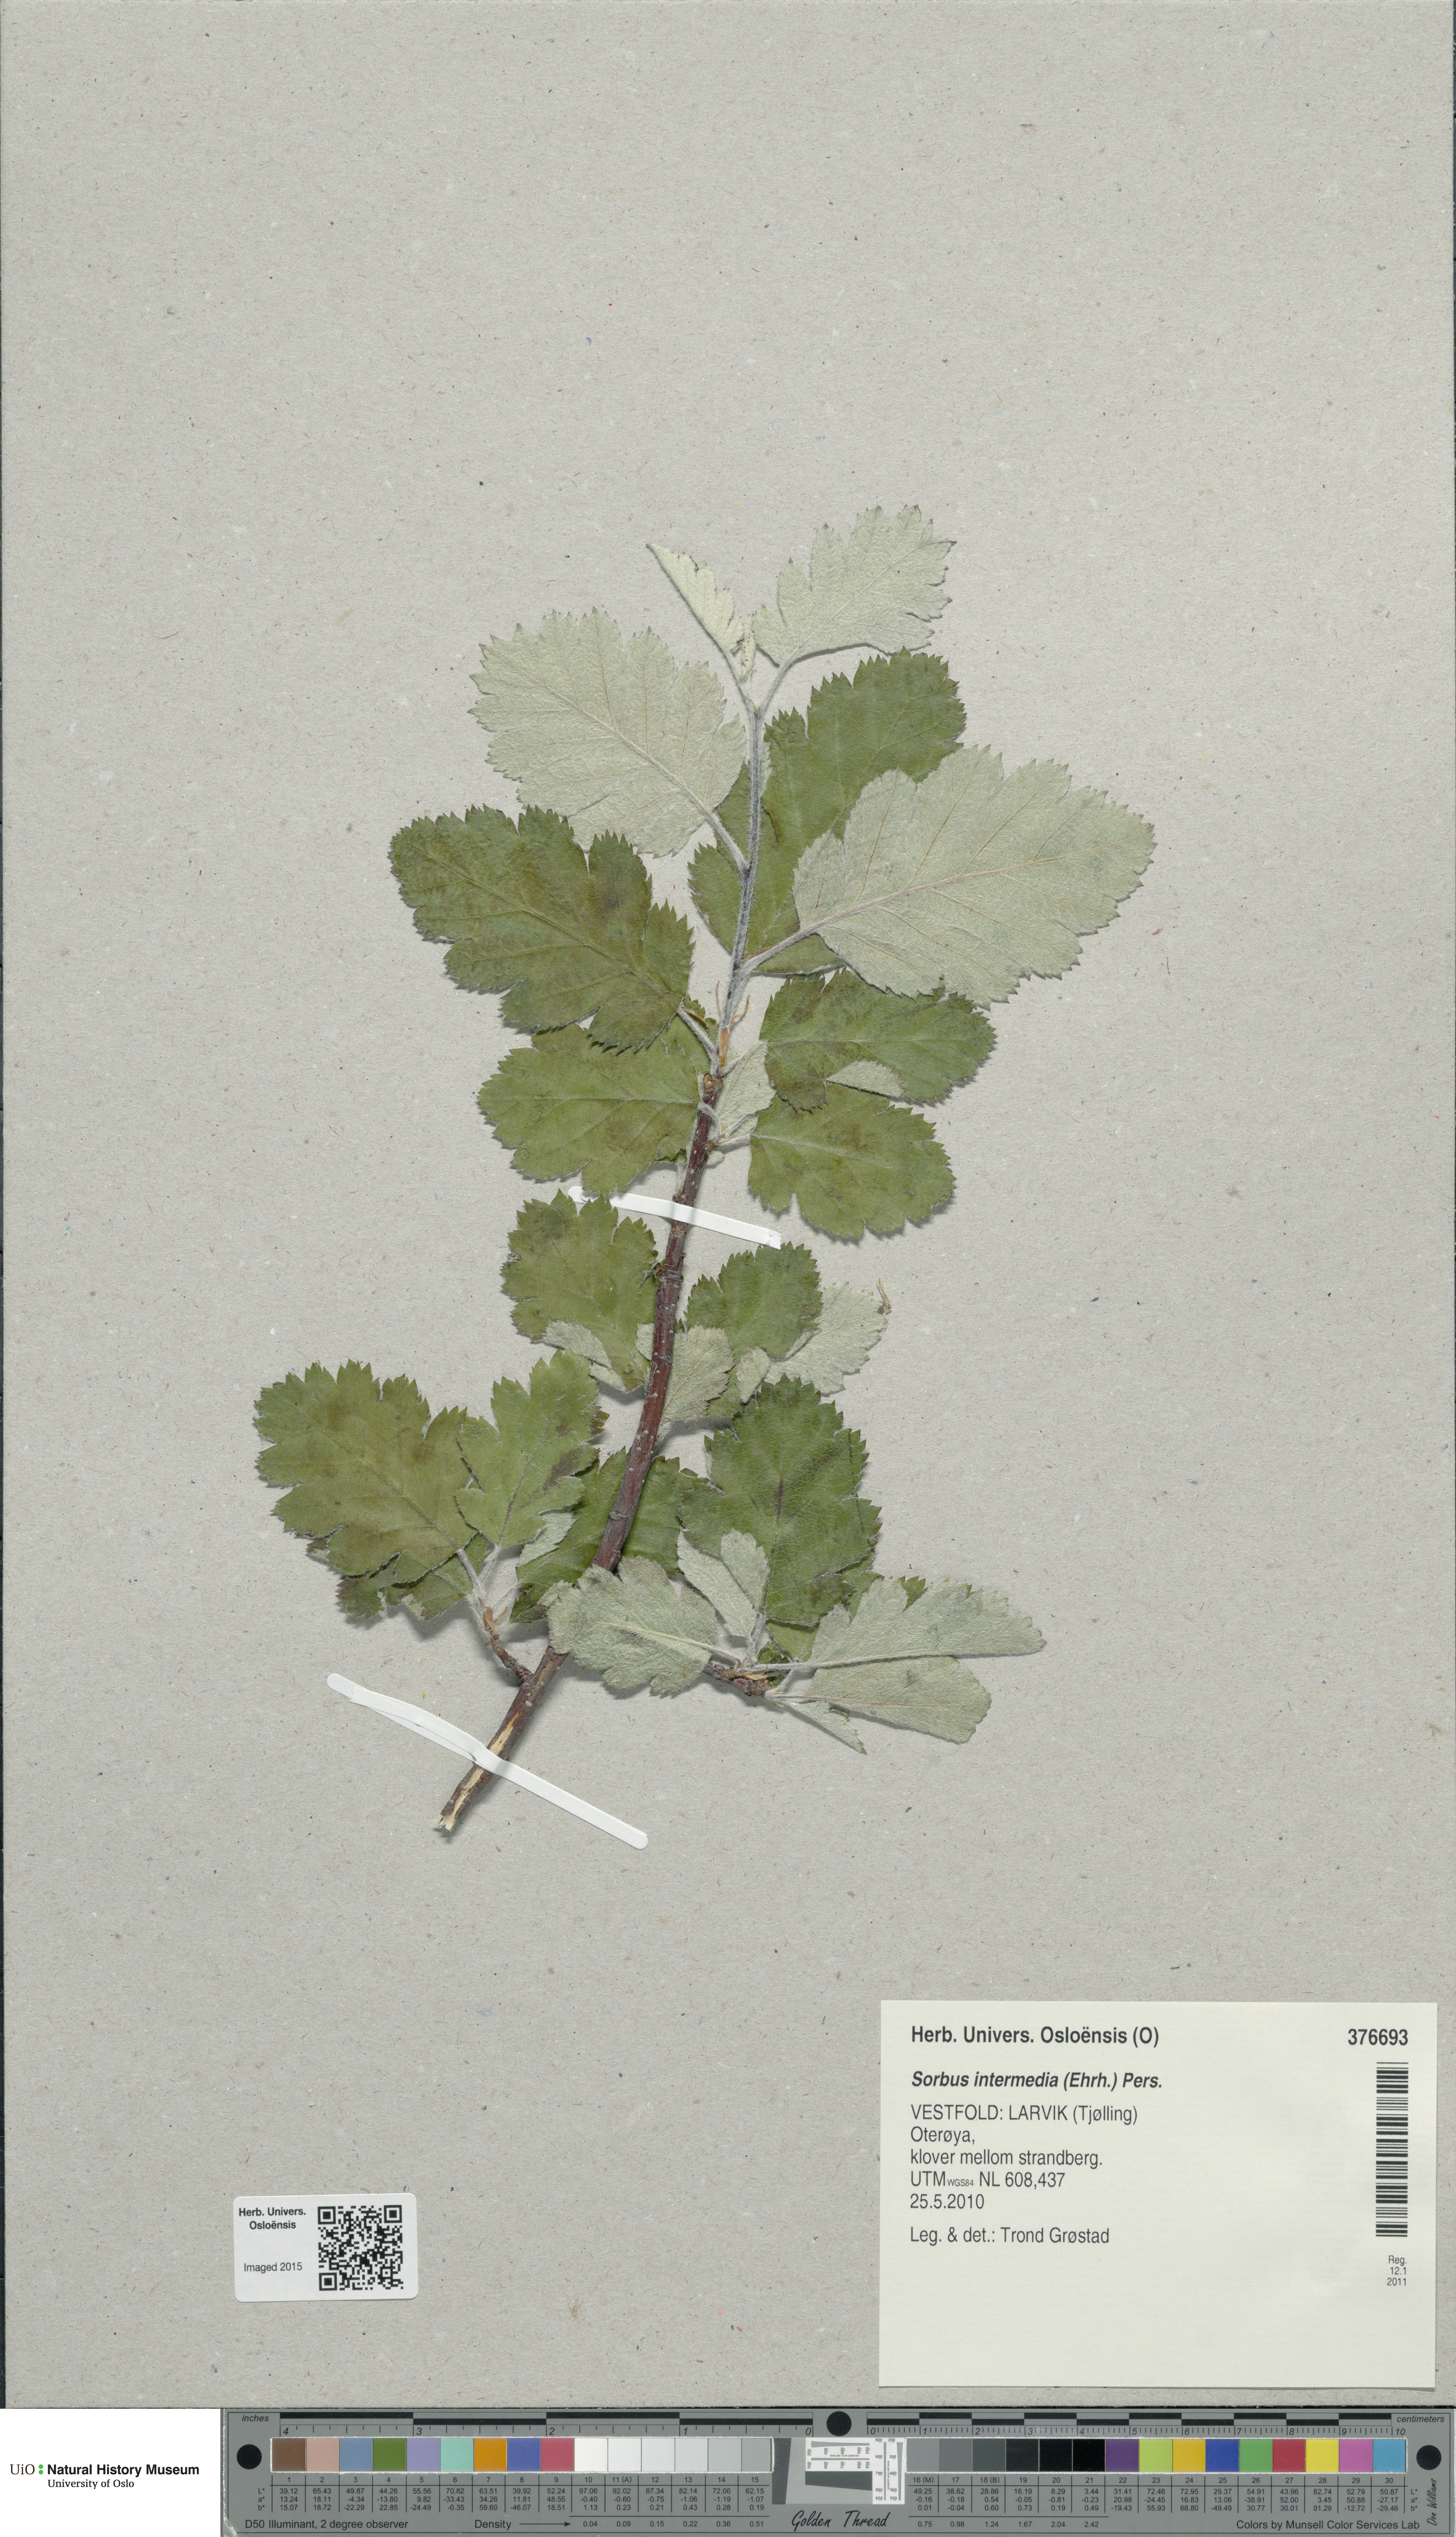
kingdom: Plantae
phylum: Tracheophyta
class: Magnoliopsida
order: Rosales
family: Rosaceae
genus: Scandosorbus
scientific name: Scandosorbus intermedia
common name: Swedish whitebeam
